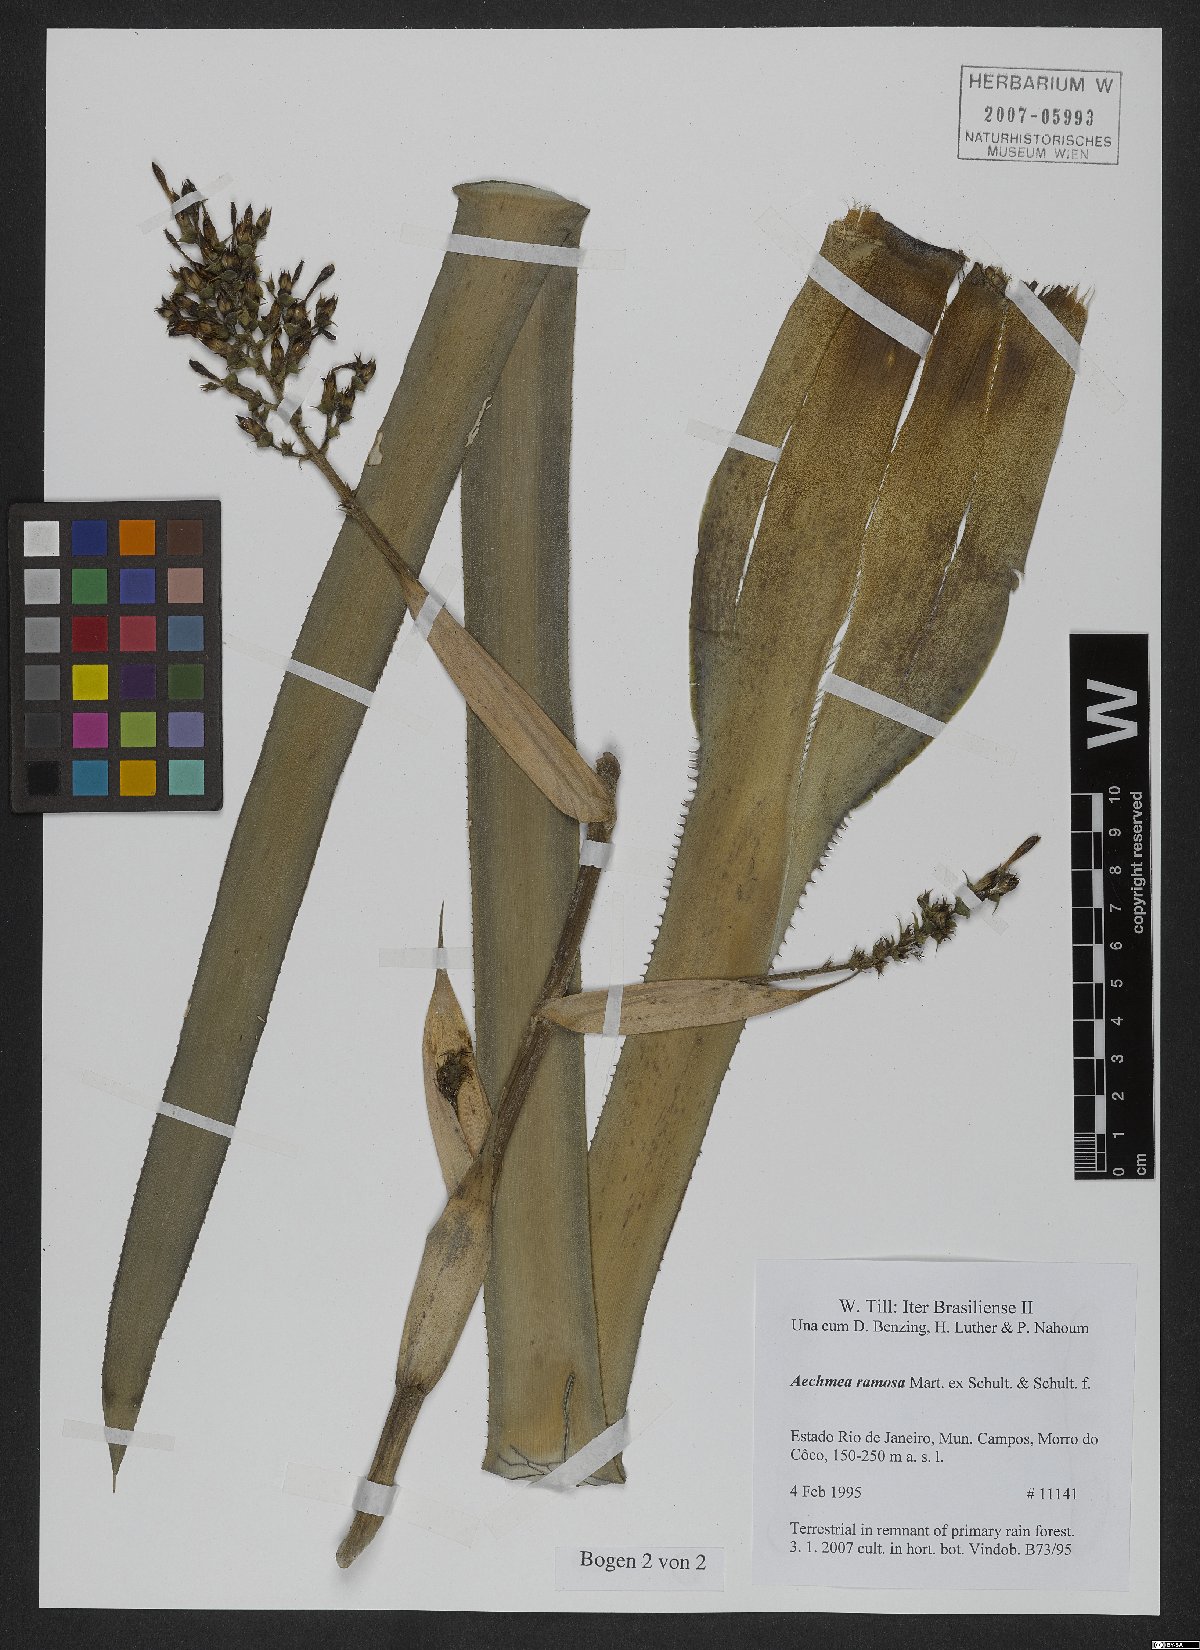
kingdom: Plantae
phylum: Tracheophyta
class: Liliopsida
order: Poales
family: Bromeliaceae
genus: Aechmea
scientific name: Aechmea ramosa
